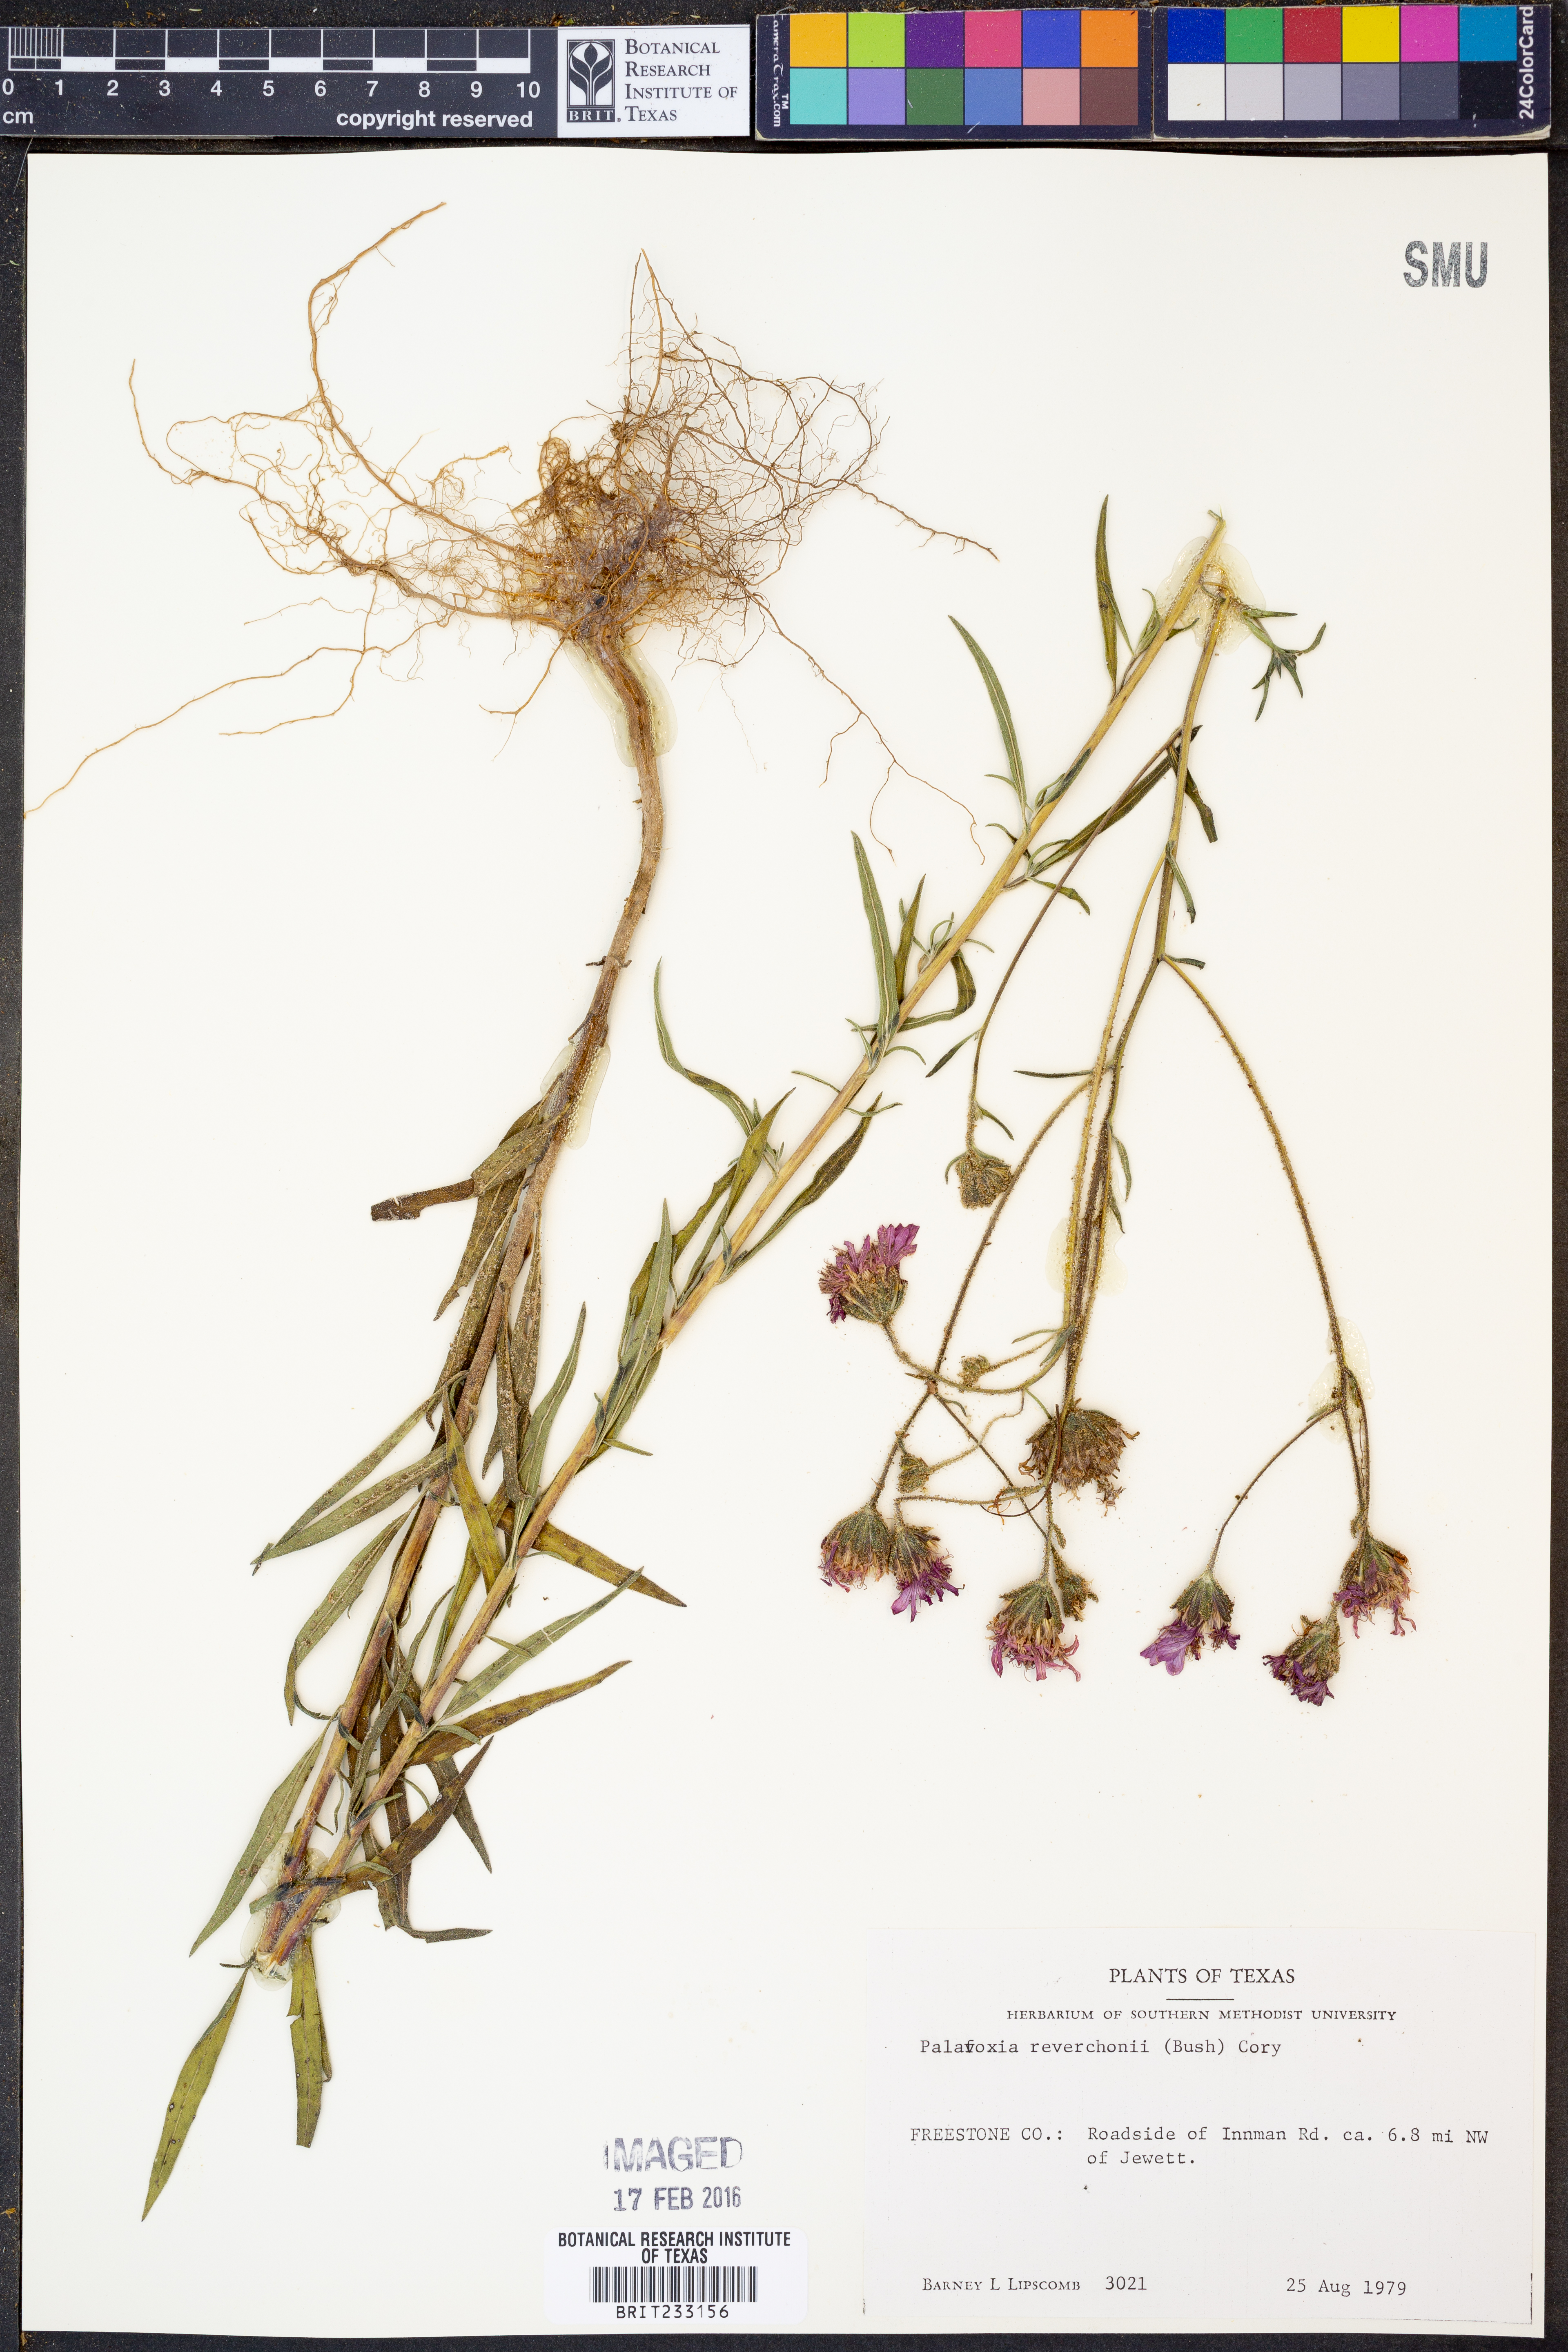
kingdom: Plantae
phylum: Tracheophyta
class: Magnoliopsida
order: Asterales
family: Asteraceae
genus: Palafoxia
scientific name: Palafoxia reverchonii
